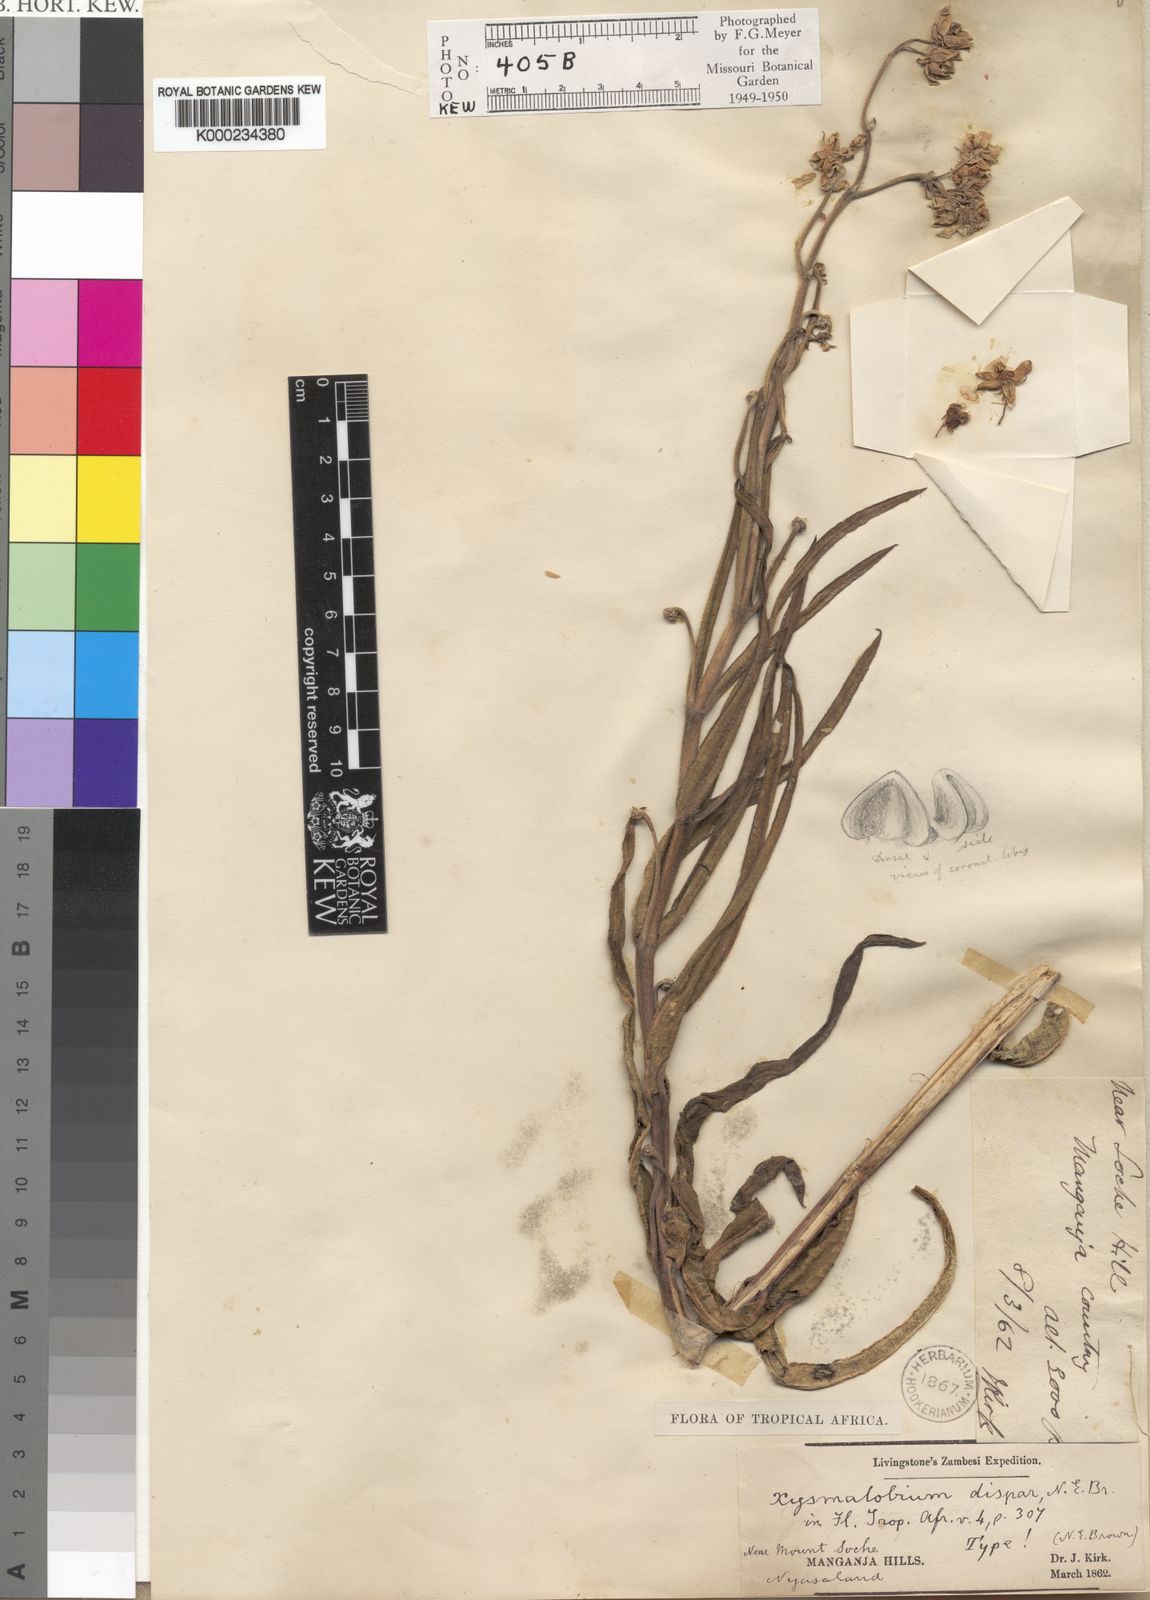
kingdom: Plantae
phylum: Tracheophyta
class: Magnoliopsida
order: Gentianales
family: Apocynaceae
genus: Xysmalobium
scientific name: Xysmalobium undulatum
